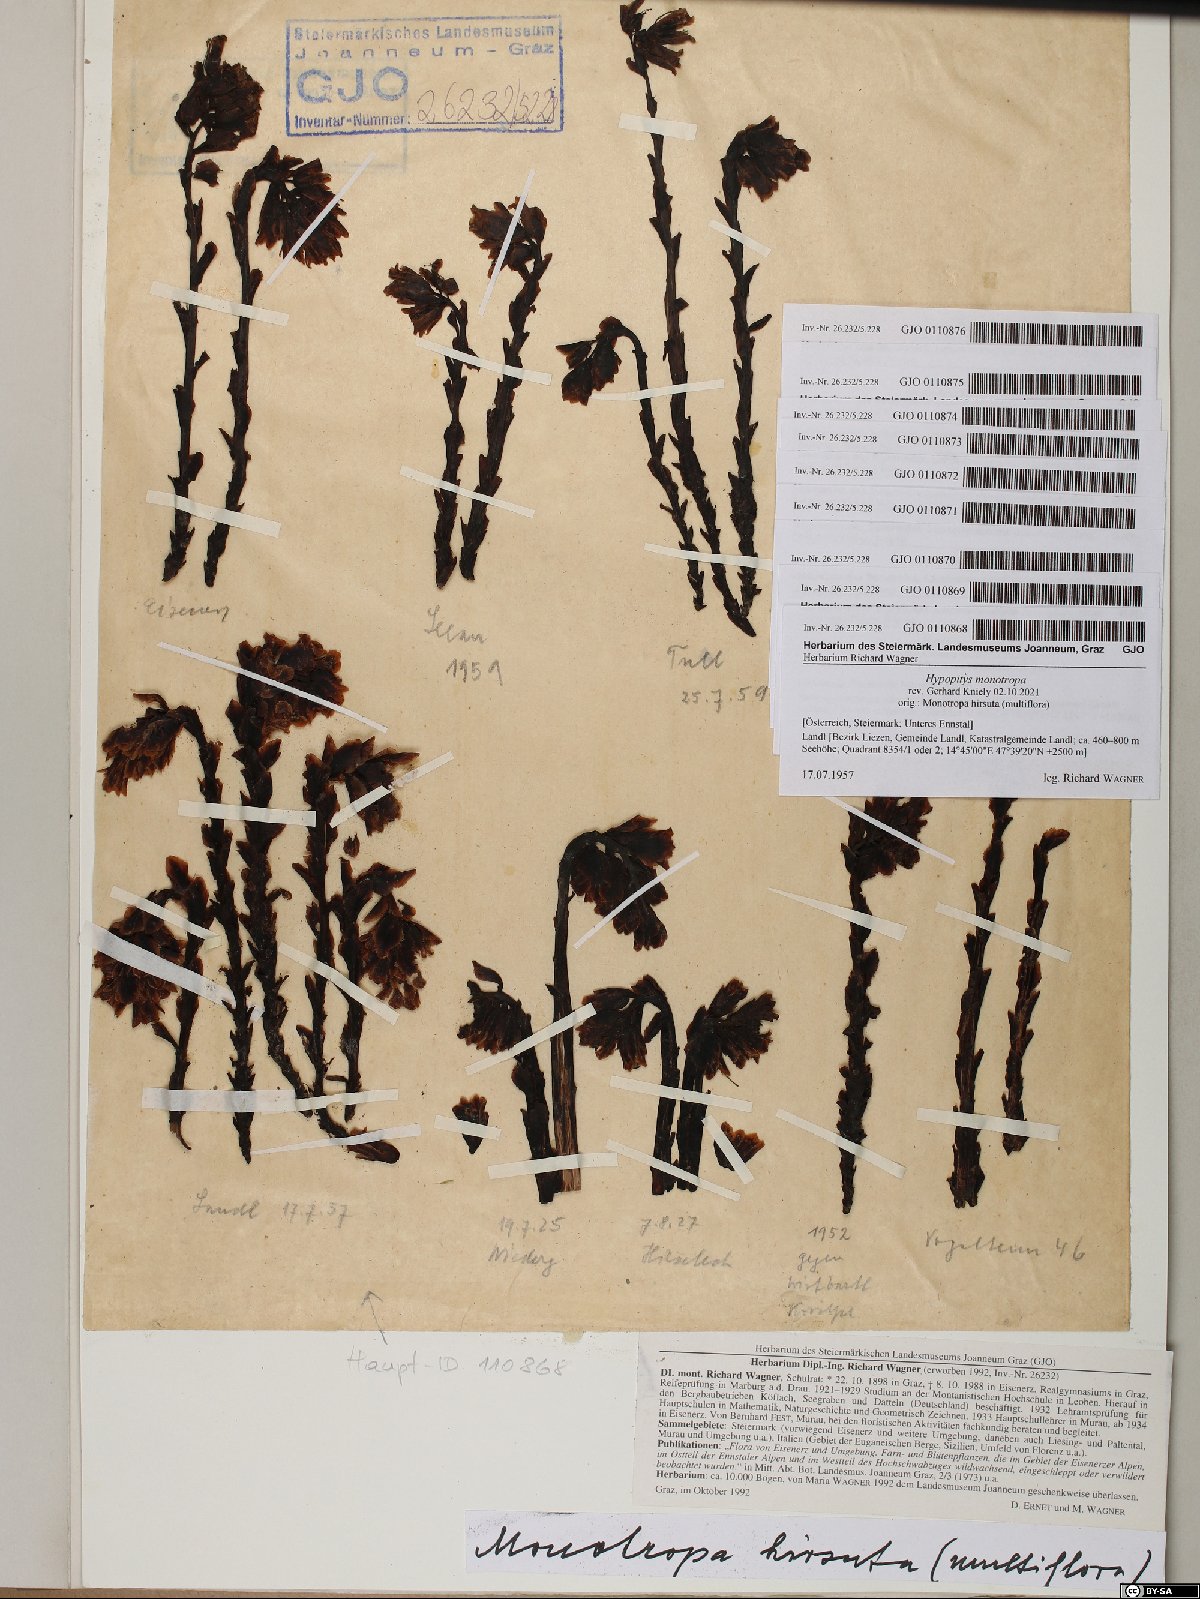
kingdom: Plantae
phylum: Tracheophyta
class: Magnoliopsida
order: Ericales
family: Ericaceae
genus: Hypopitys
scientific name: Hypopitys monotropa
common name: Yellow bird's-nest
